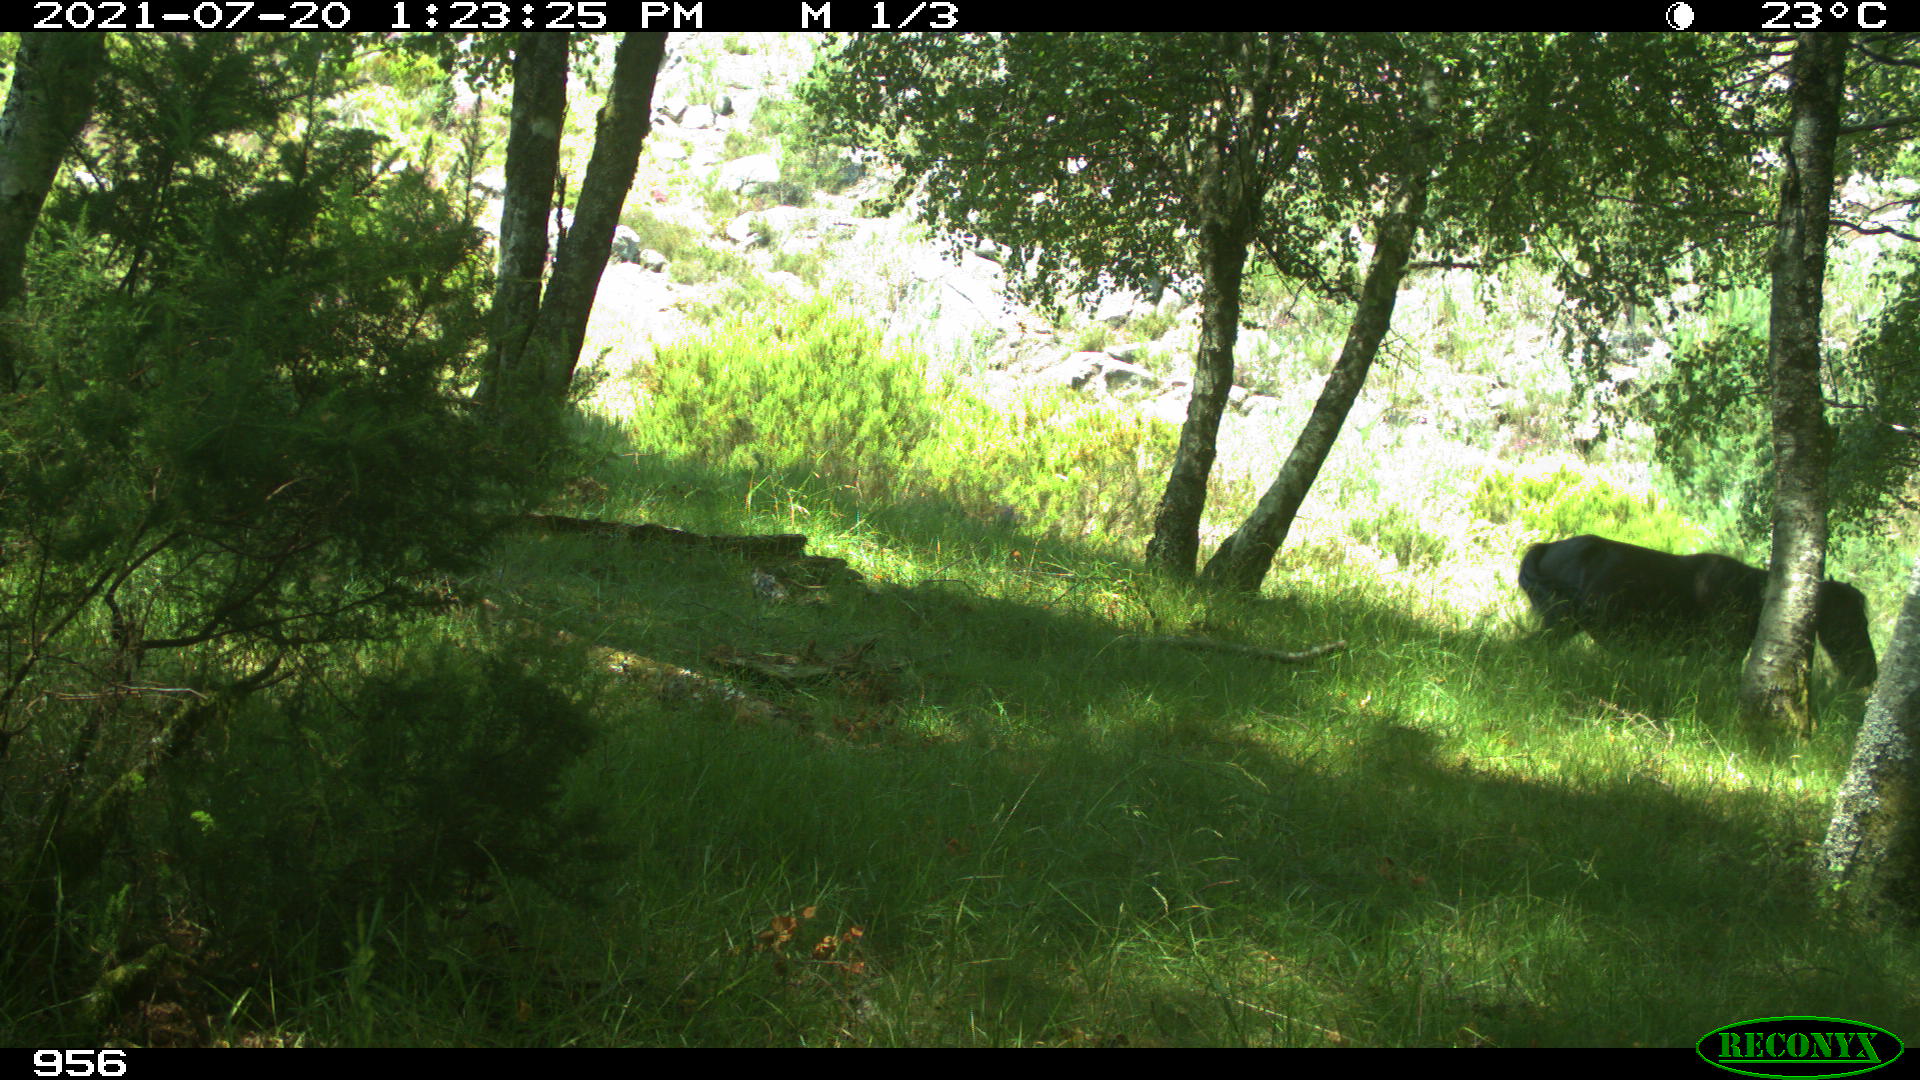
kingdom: Animalia
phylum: Chordata
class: Mammalia
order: Perissodactyla
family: Equidae
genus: Equus
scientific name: Equus caballus
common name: Horse
